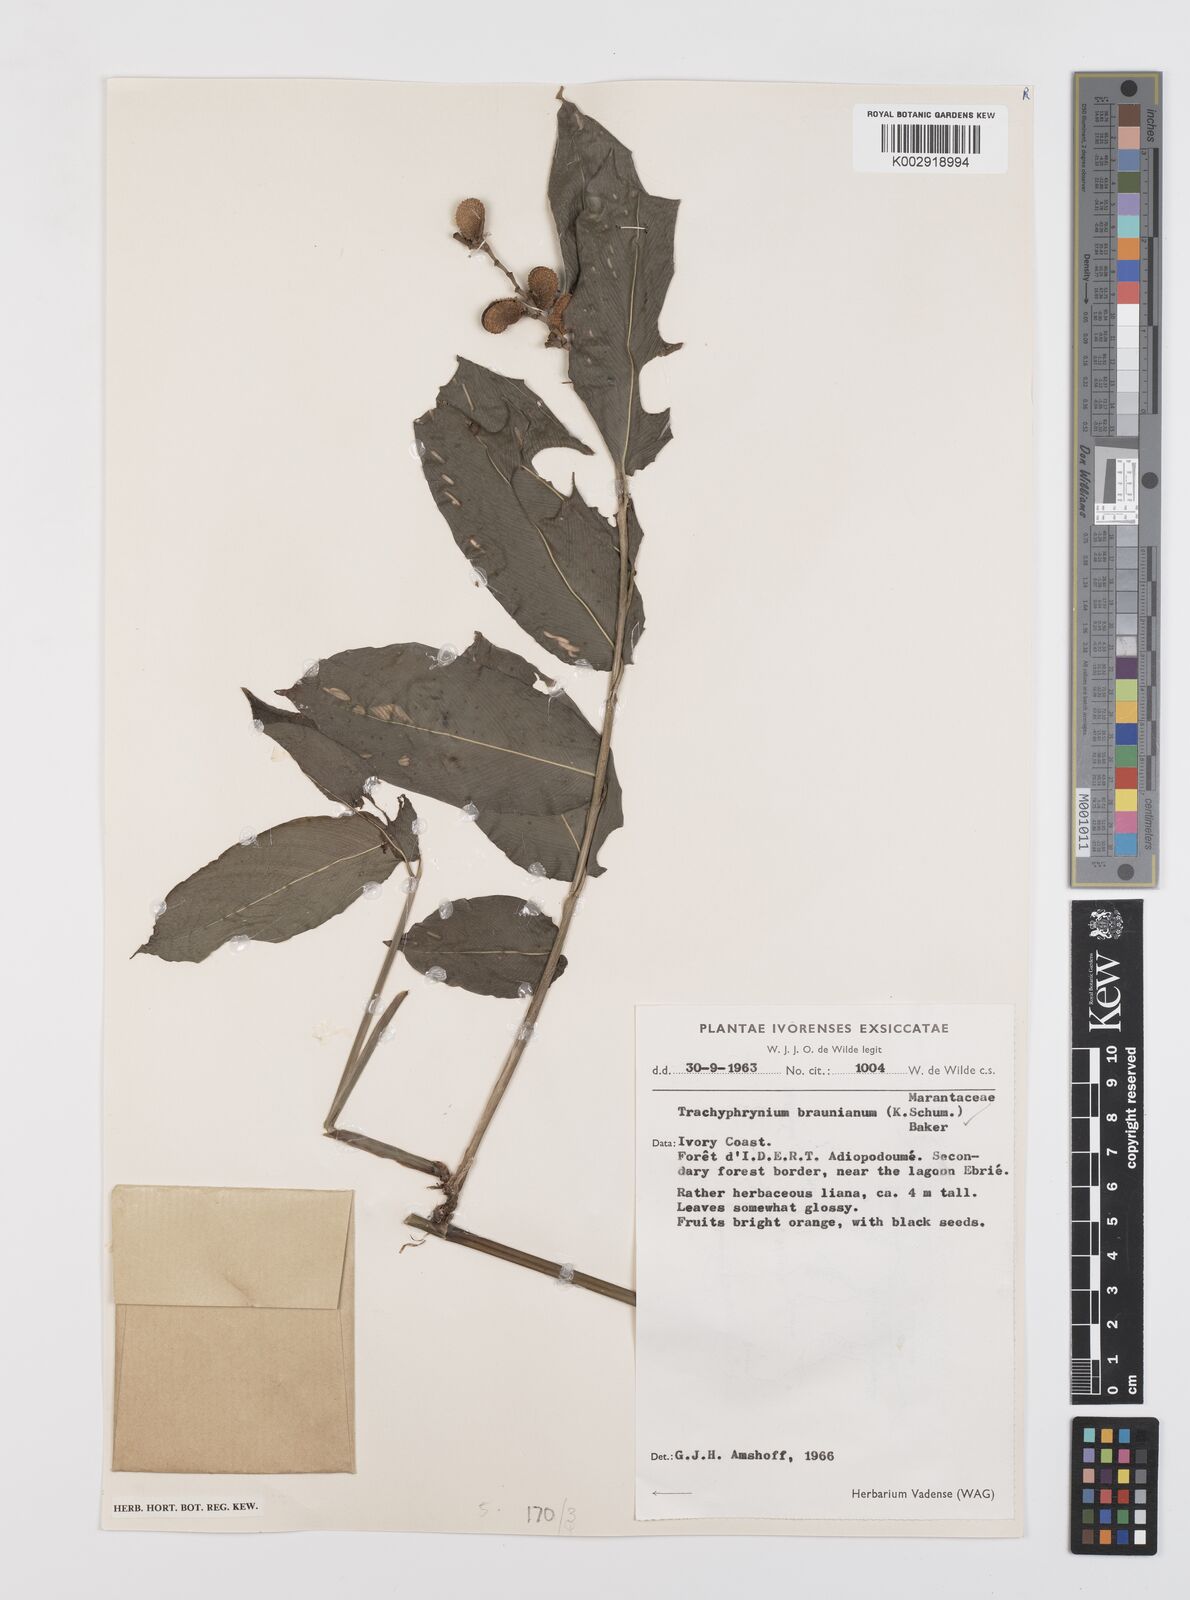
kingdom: Plantae
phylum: Tracheophyta
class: Liliopsida
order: Zingiberales
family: Marantaceae
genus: Trachyphrynium
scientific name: Trachyphrynium braunianum
